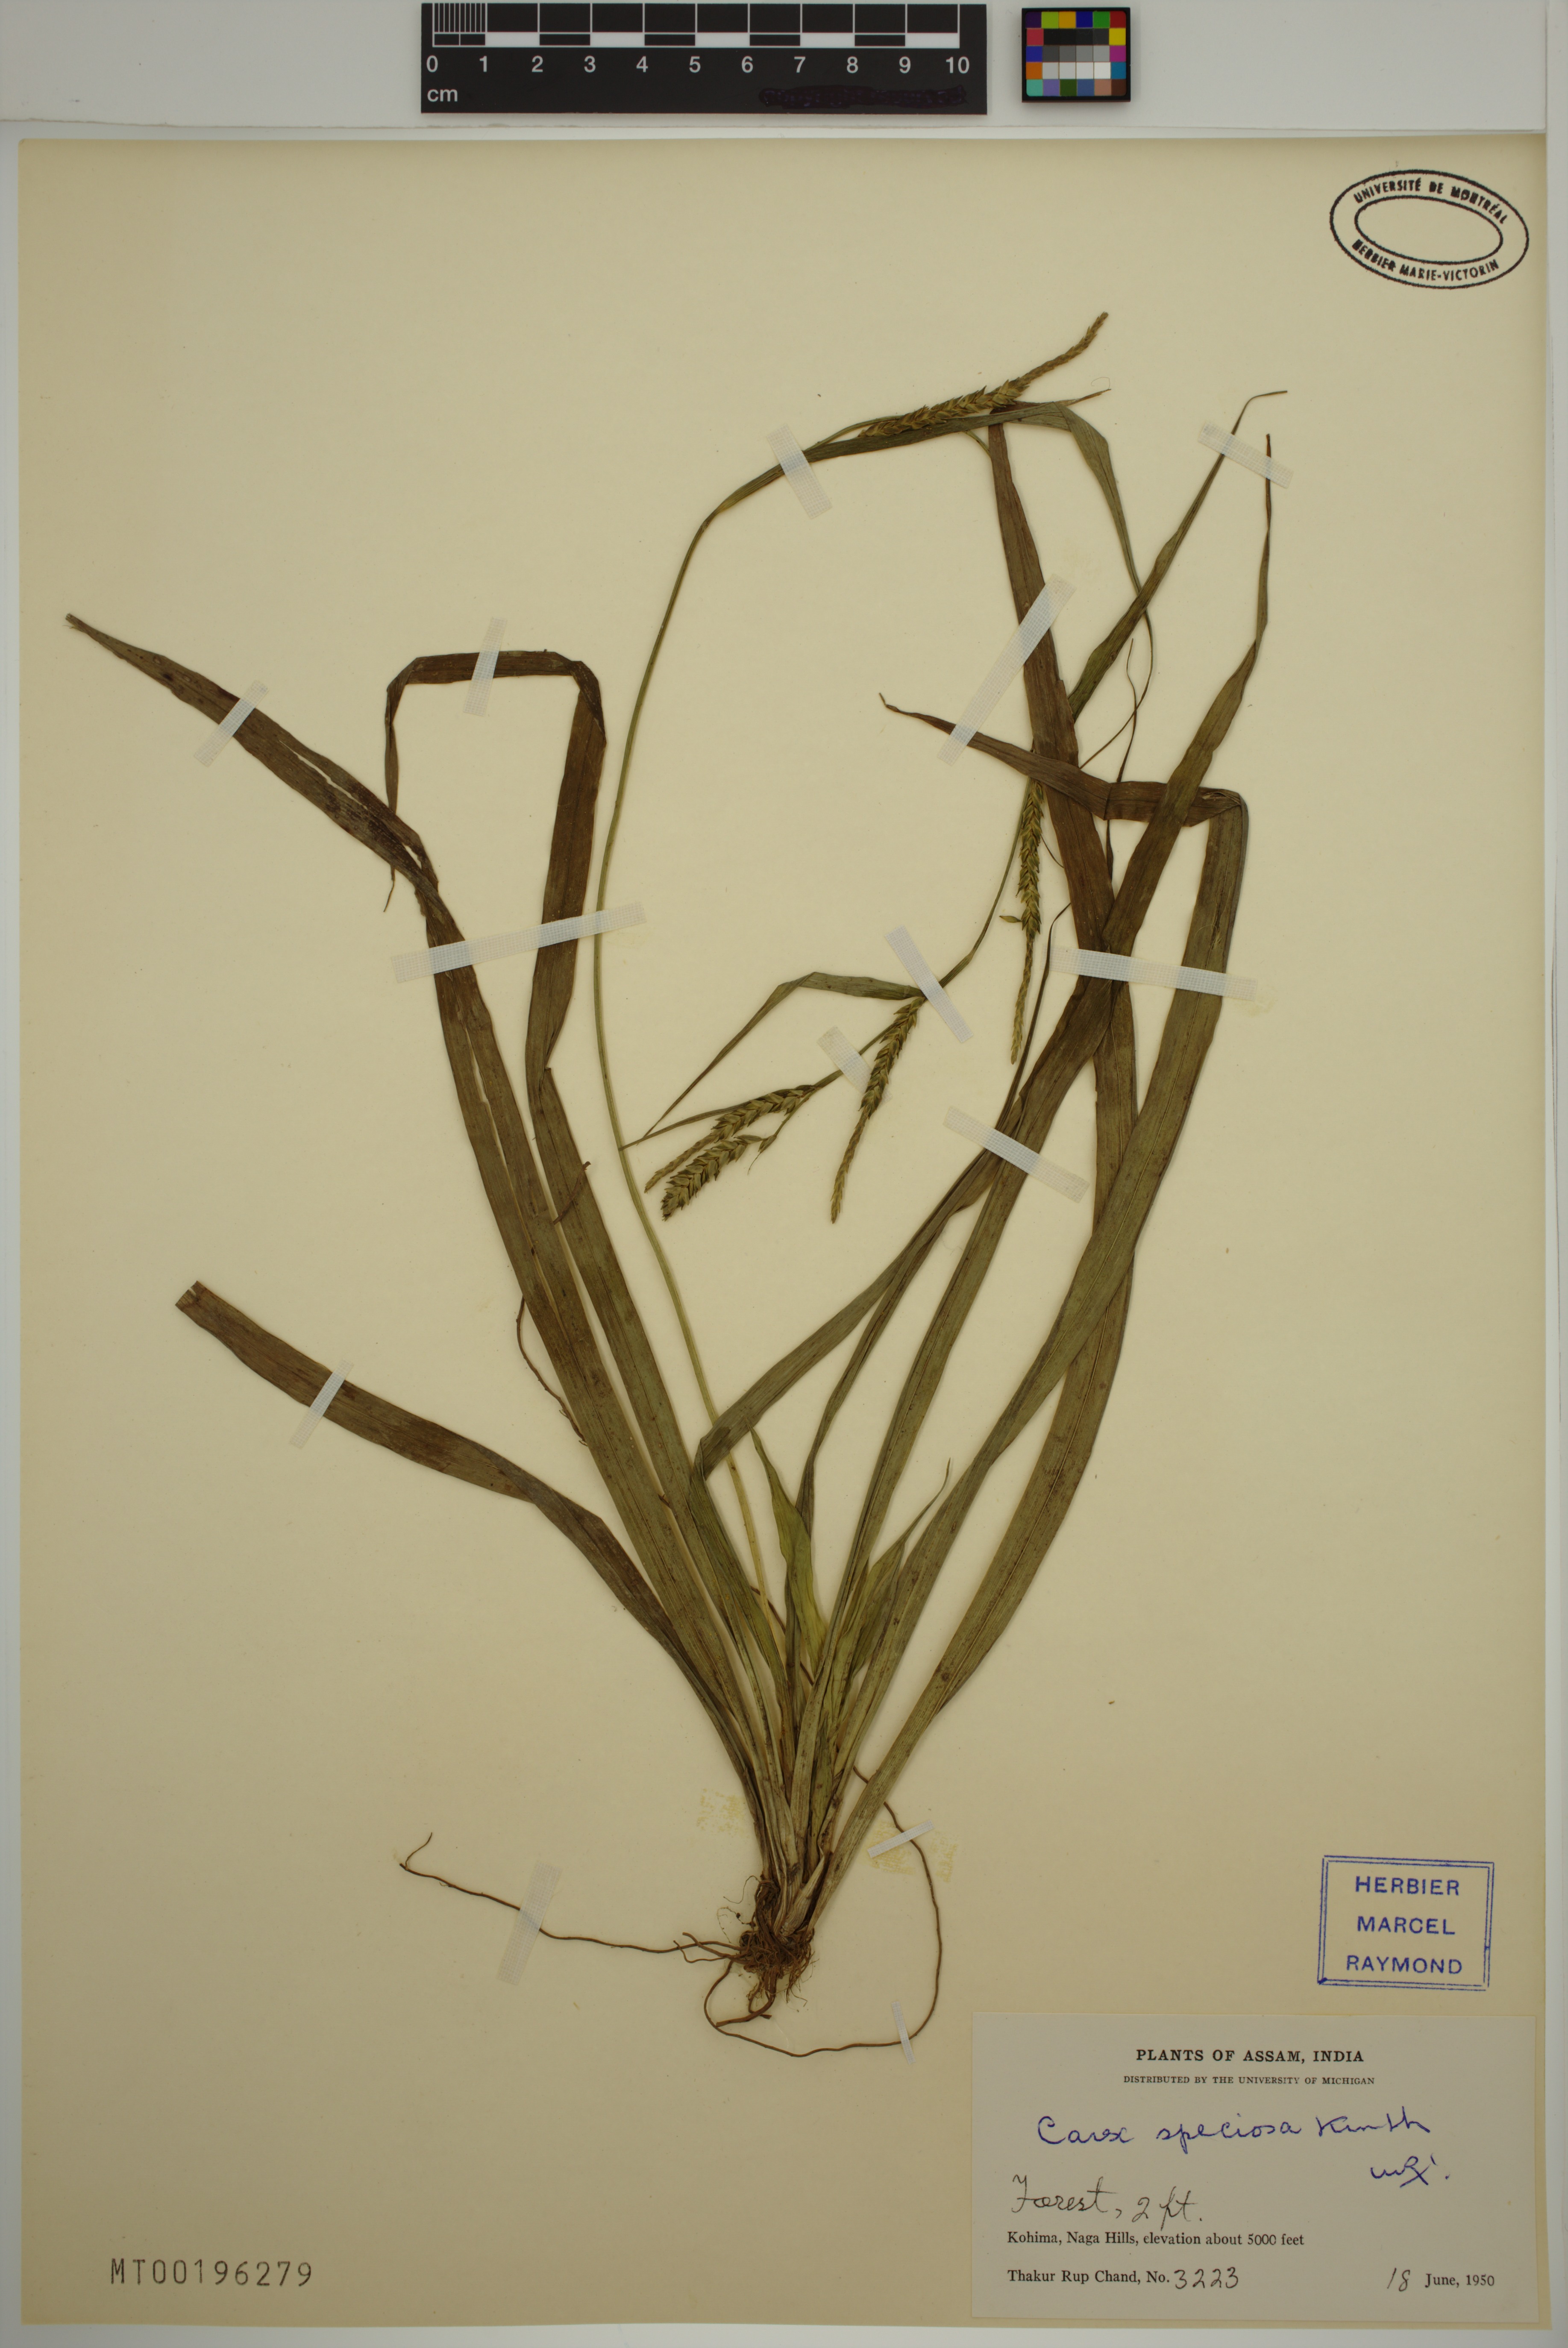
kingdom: Plantae
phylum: Tracheophyta
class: Liliopsida
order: Poales
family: Cyperaceae
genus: Carex
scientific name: Carex speciosa
